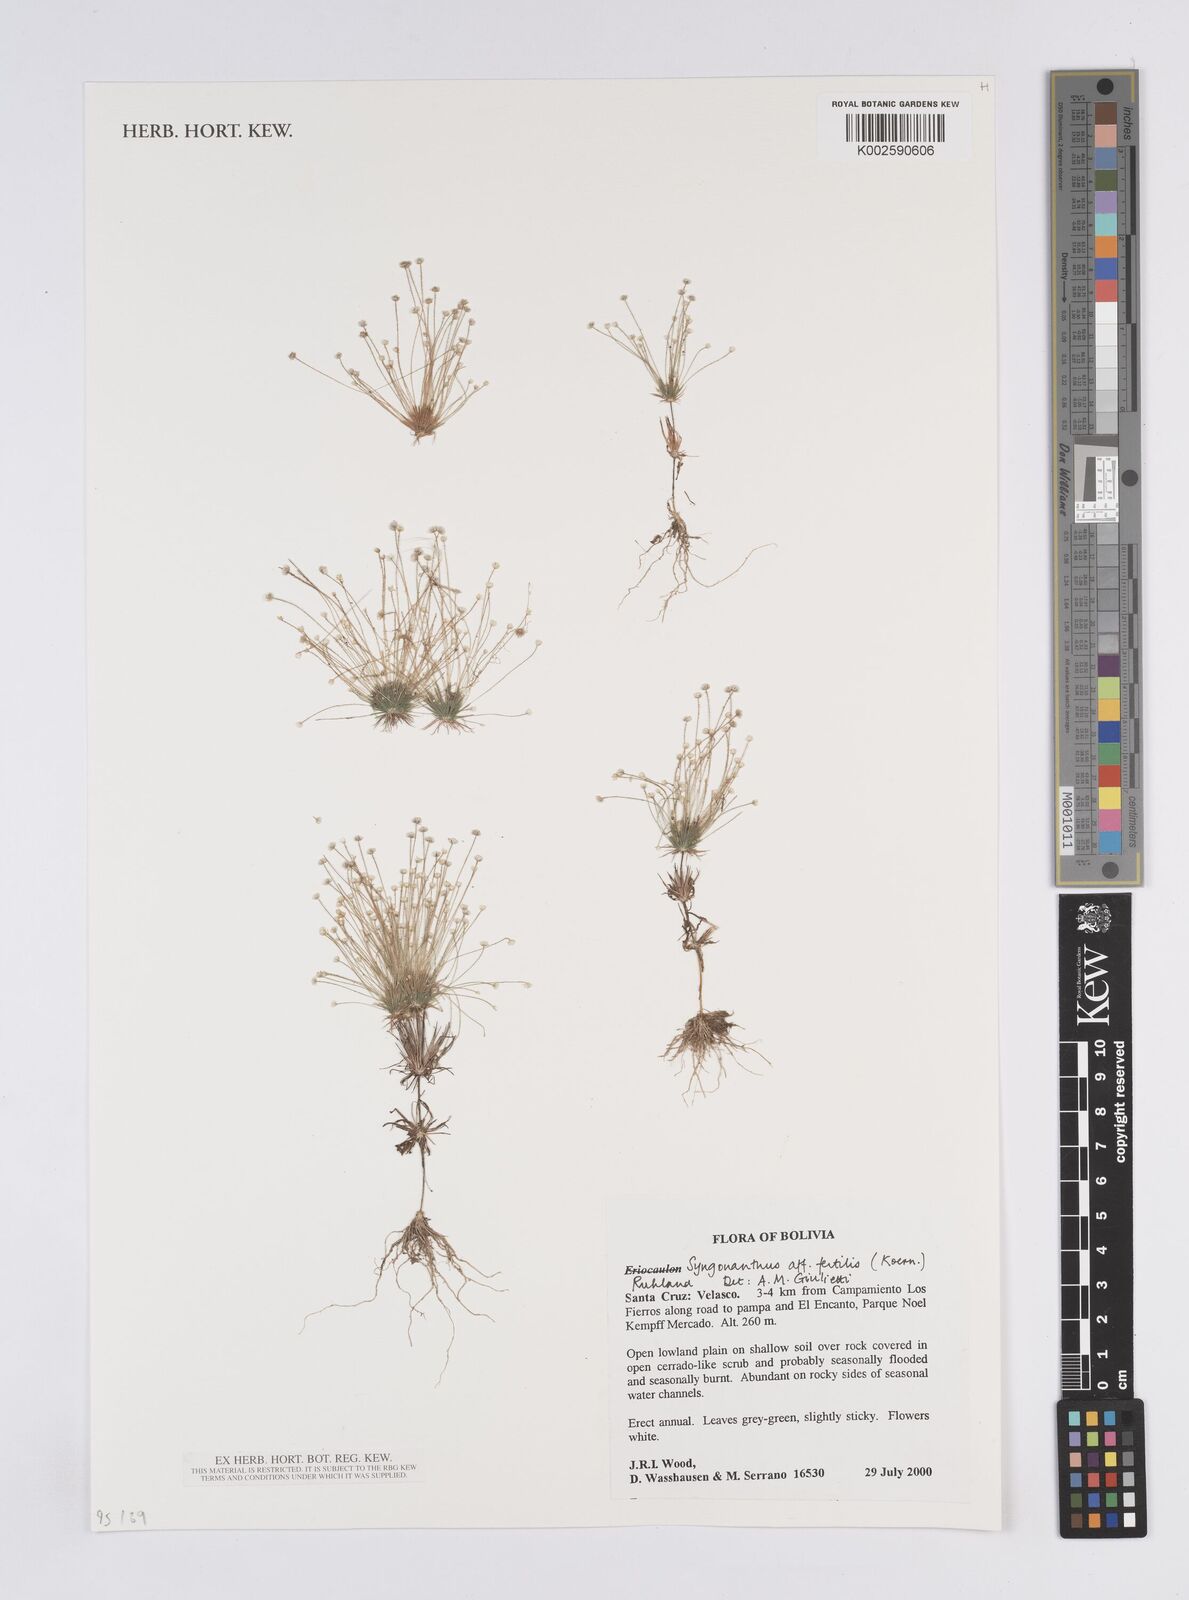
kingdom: Plantae
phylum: Tracheophyta
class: Liliopsida
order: Poales
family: Eriocaulaceae
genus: Syngonanthus
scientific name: Syngonanthus humboldtii
